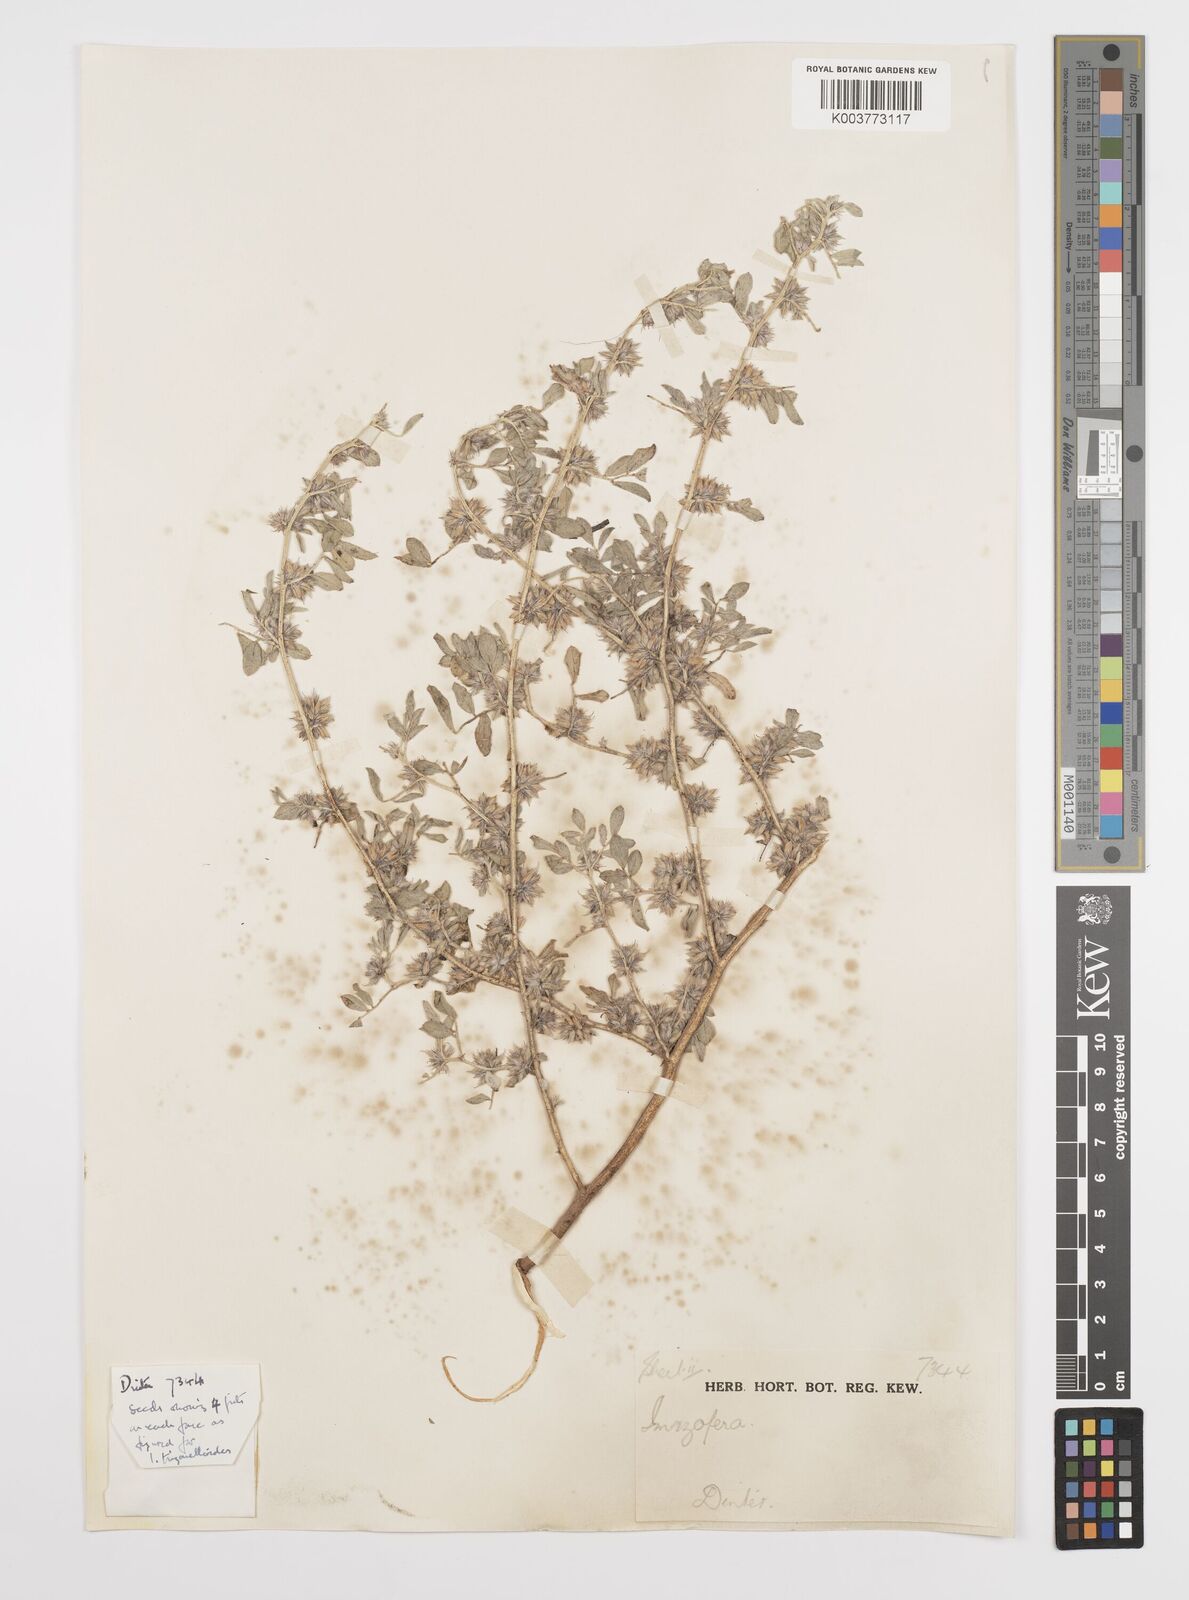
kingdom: Plantae
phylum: Tracheophyta
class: Magnoliopsida
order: Fabales
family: Fabaceae
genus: Indigofera
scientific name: Indigofera trigonelloides
